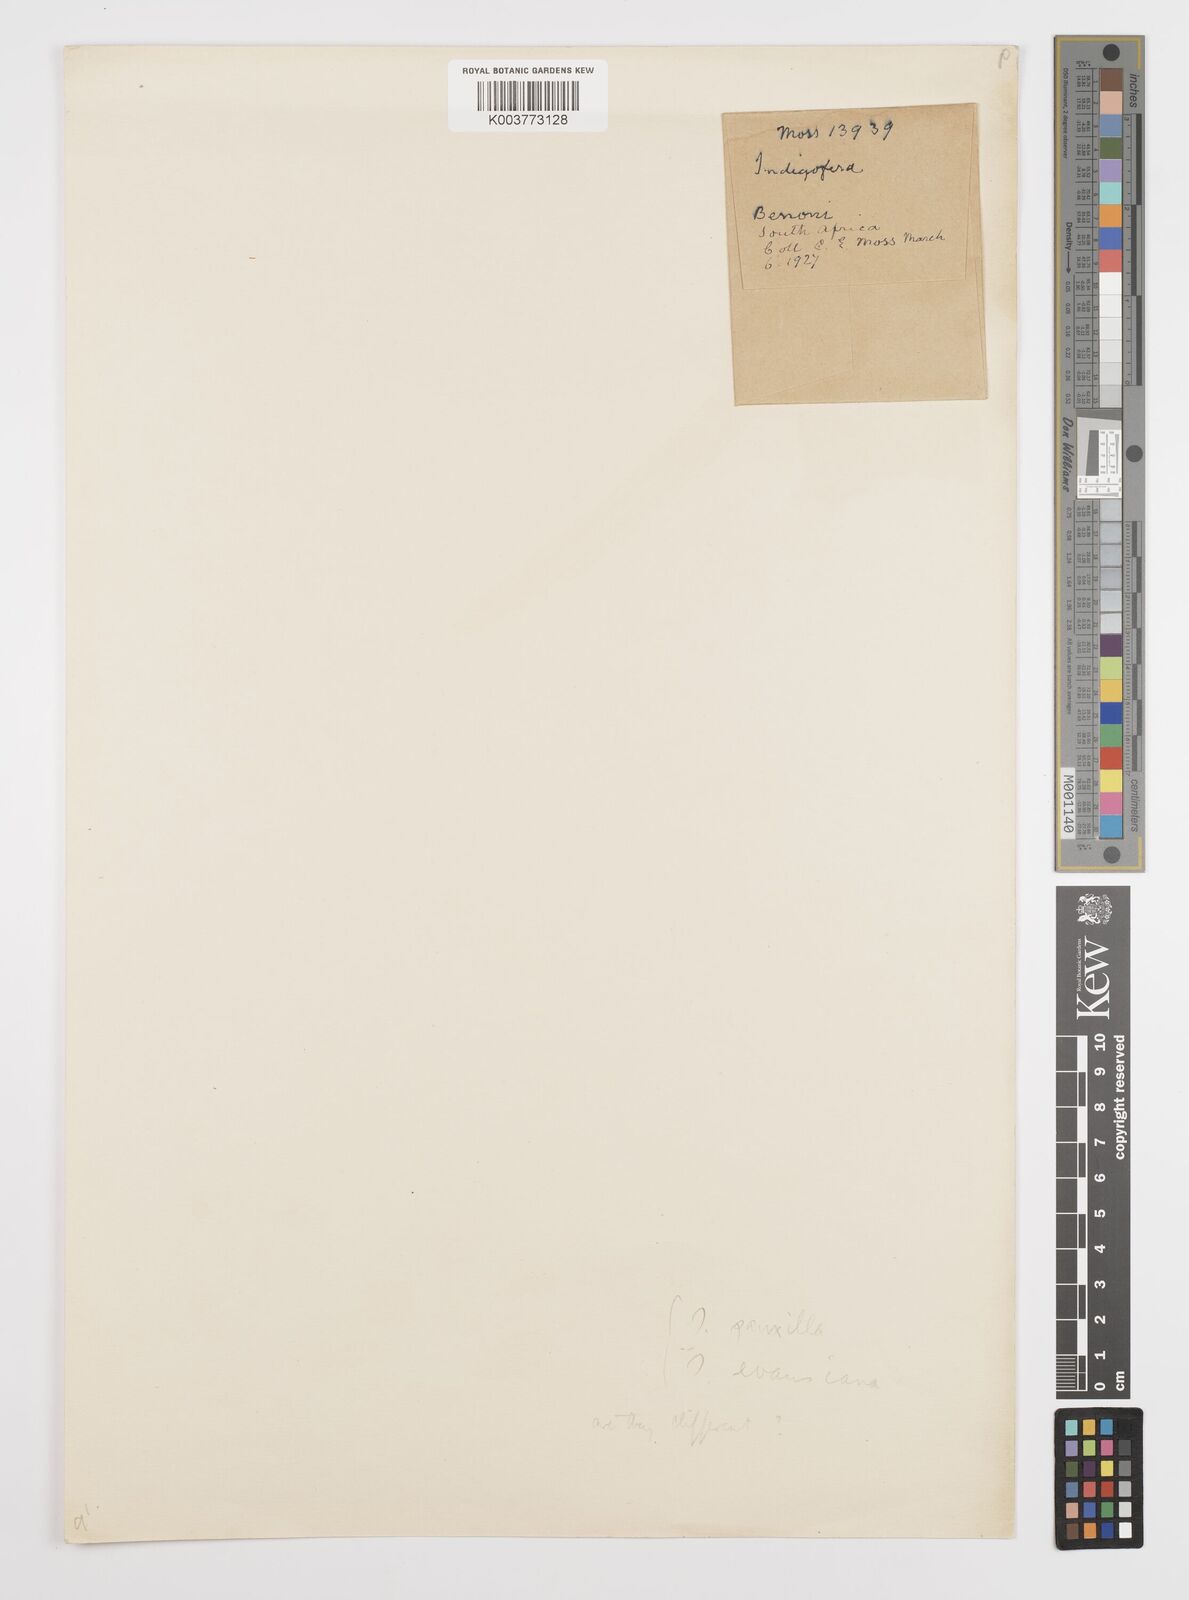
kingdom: Plantae
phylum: Tracheophyta
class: Magnoliopsida
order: Fabales
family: Fabaceae
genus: Indigofera
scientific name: Indigofera hedyantha
